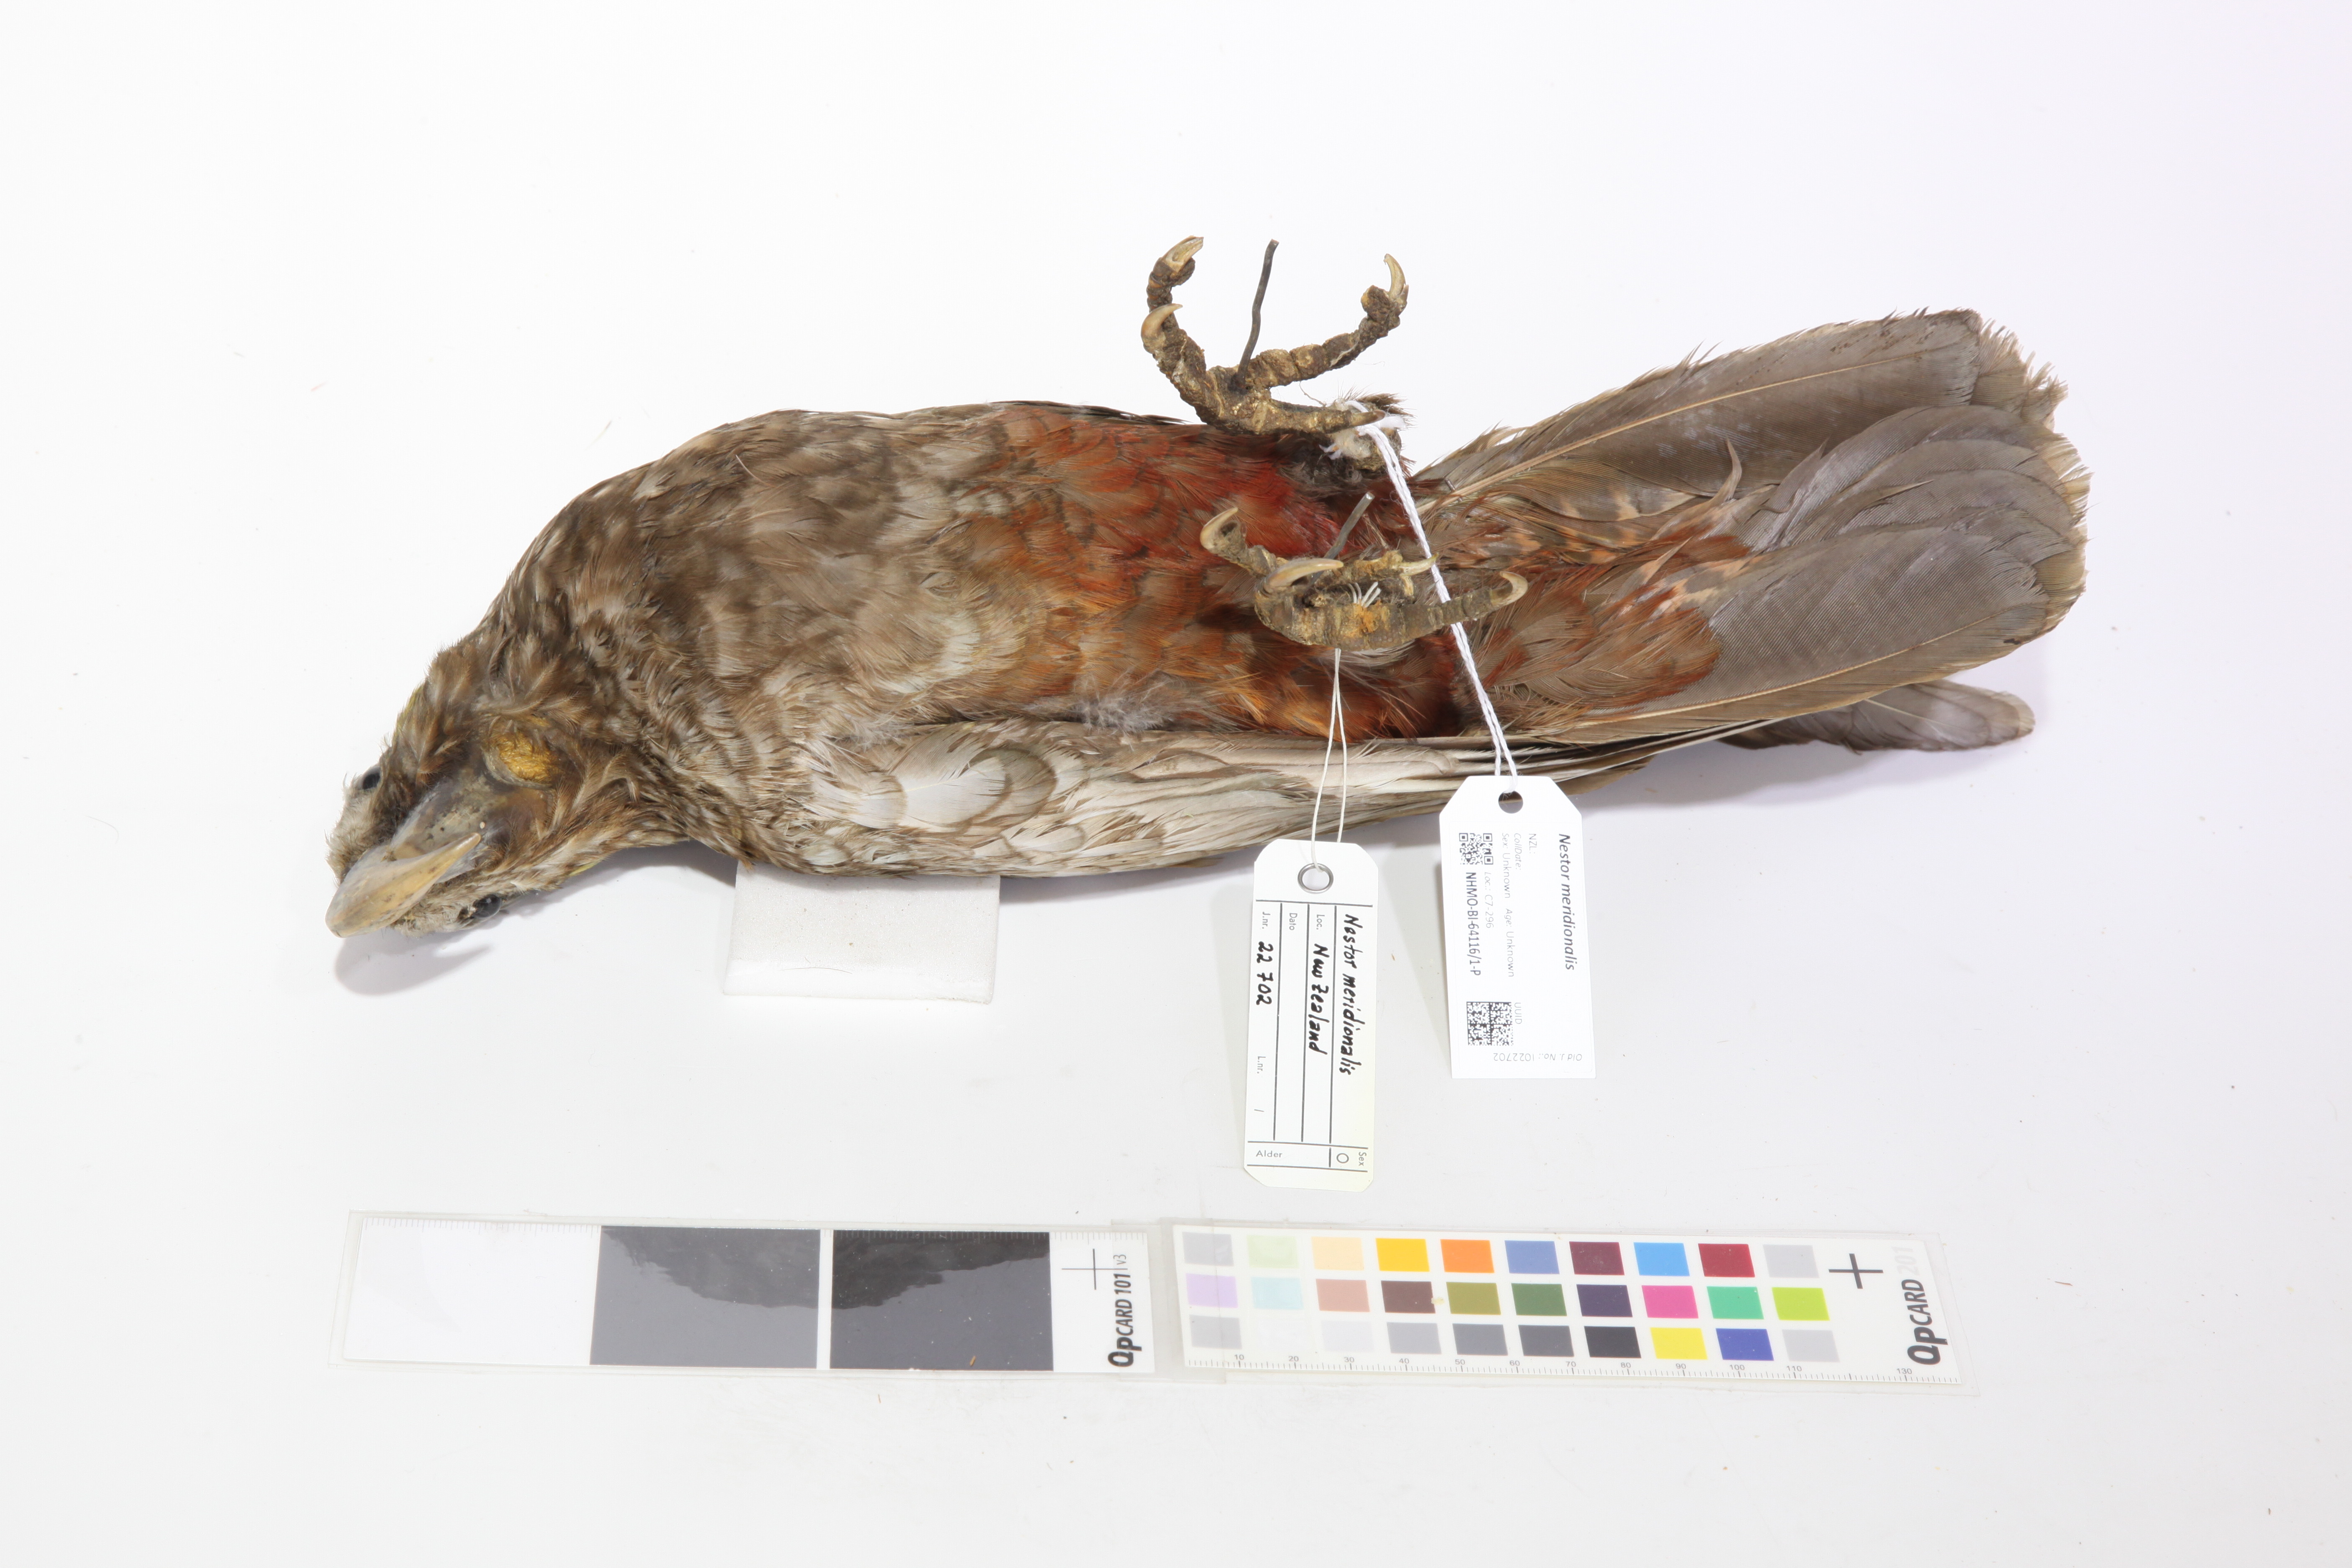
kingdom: Animalia
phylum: Chordata
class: Aves
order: Psittaciformes
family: Psittacidae
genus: Nestor
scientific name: Nestor meridionalis
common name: New zealand kaka
